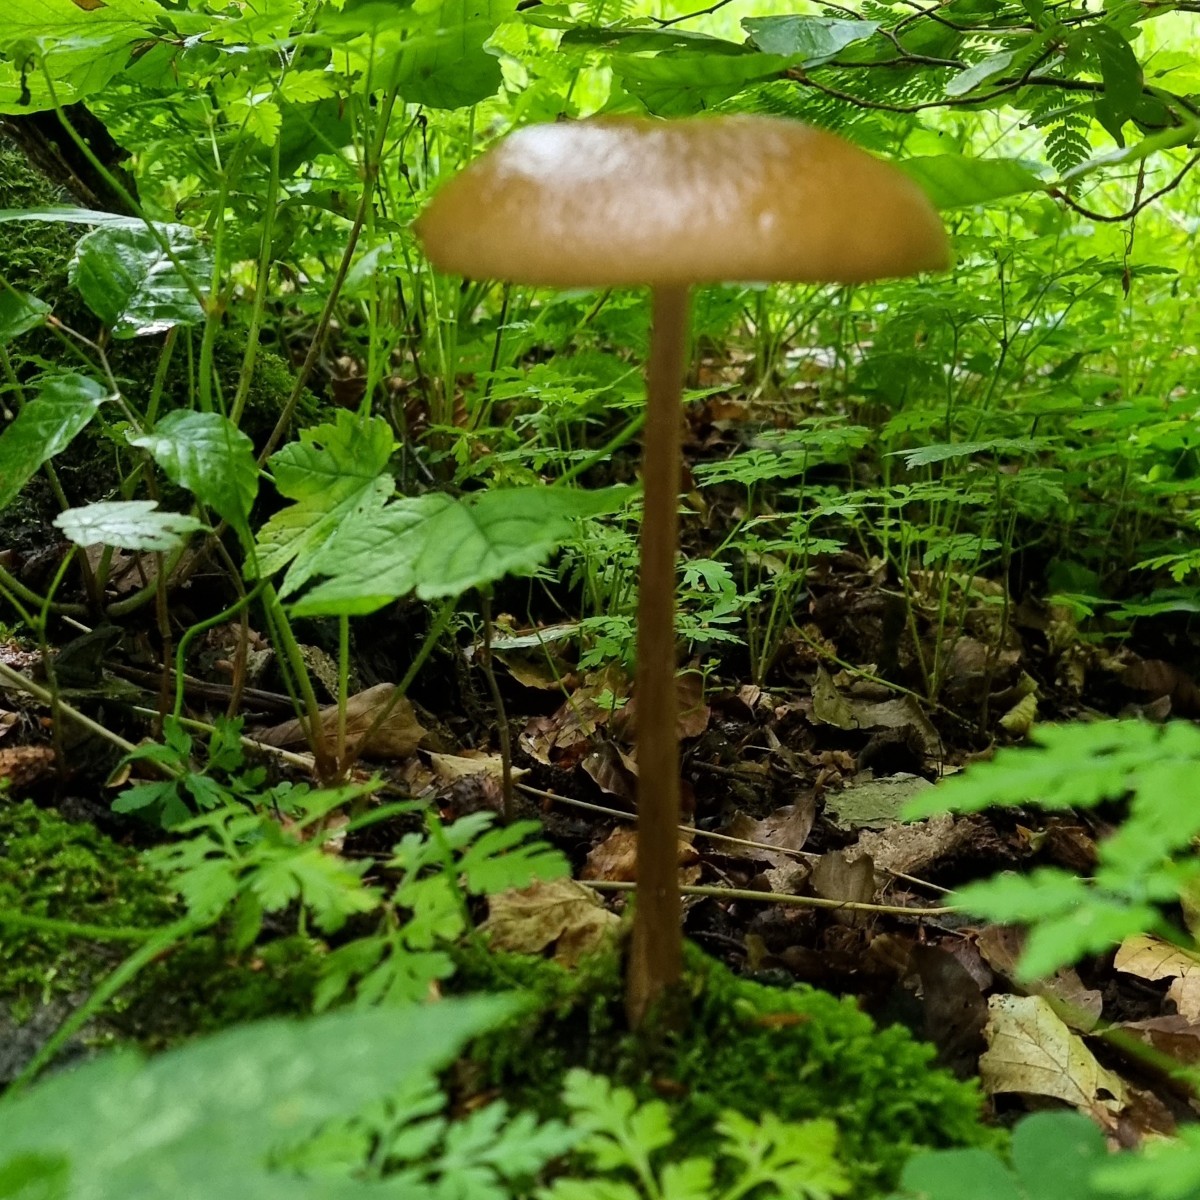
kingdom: Fungi
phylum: Basidiomycota
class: Agaricomycetes
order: Agaricales
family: Physalacriaceae
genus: Hymenopellis
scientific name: Hymenopellis radicata
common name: almindelig pælerodshat
